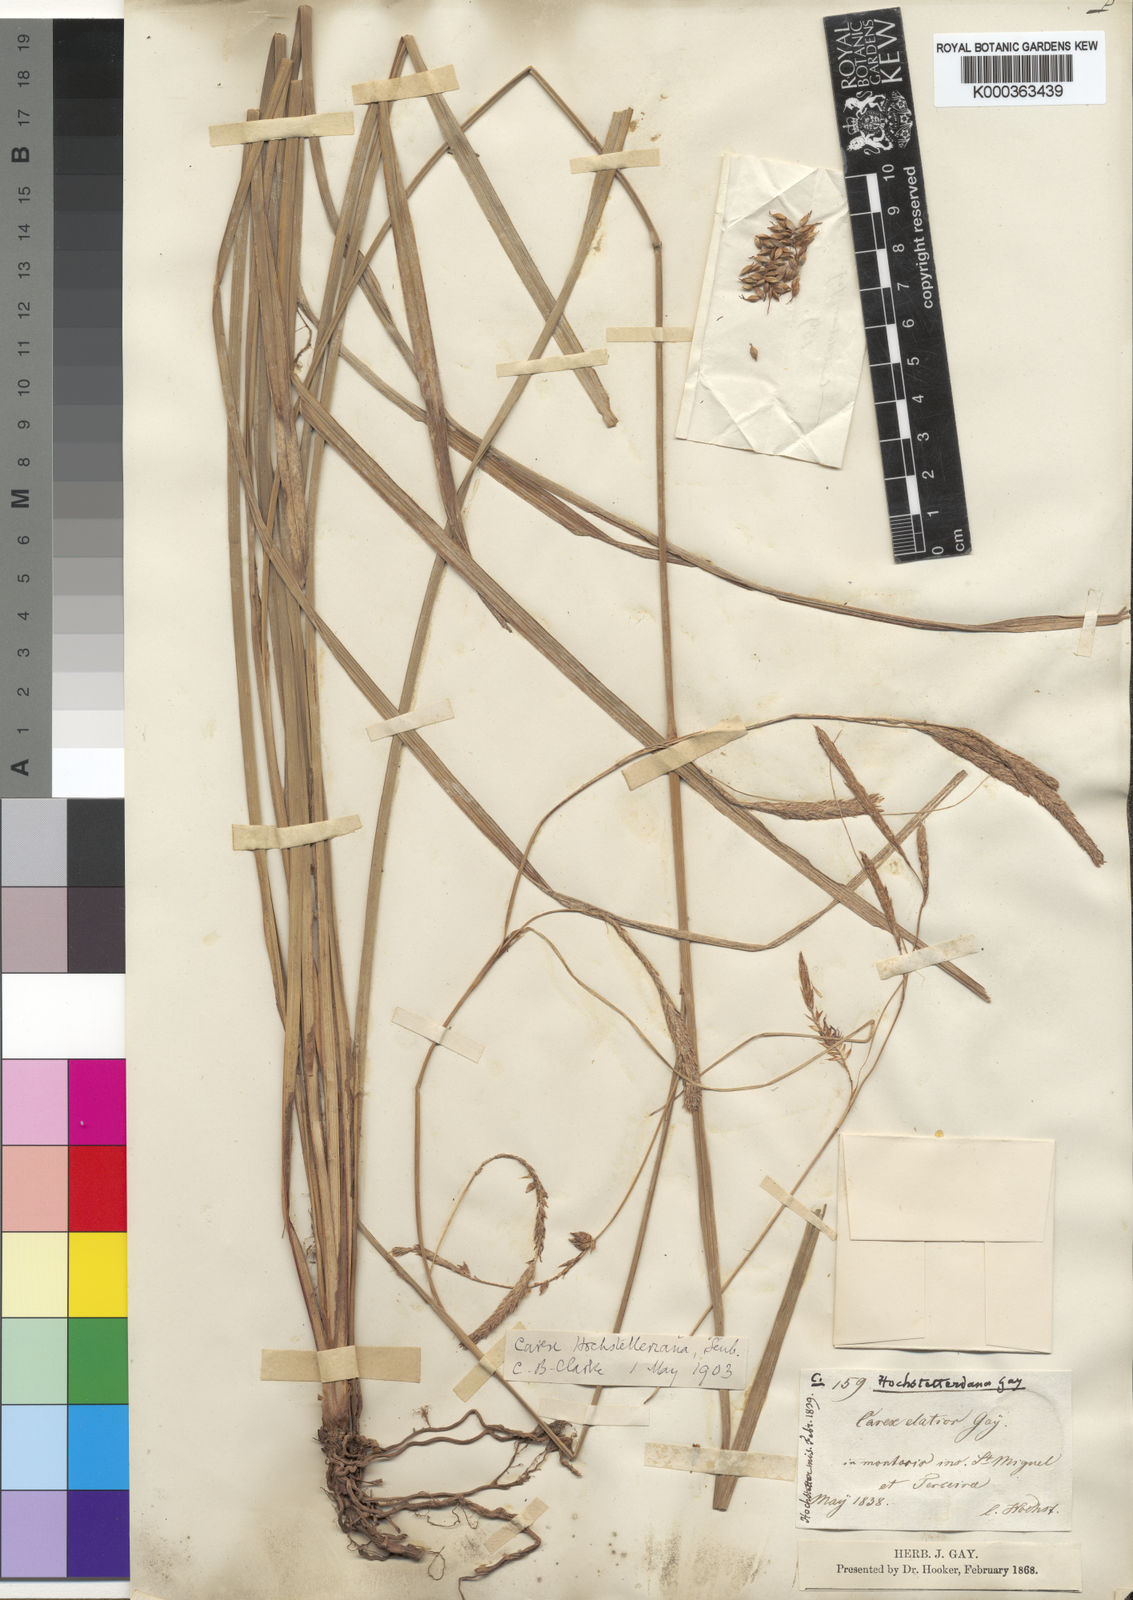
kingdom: Plantae
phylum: Tracheophyta
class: Liliopsida
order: Poales
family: Cyperaceae
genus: Carex
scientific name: Carex lowei
